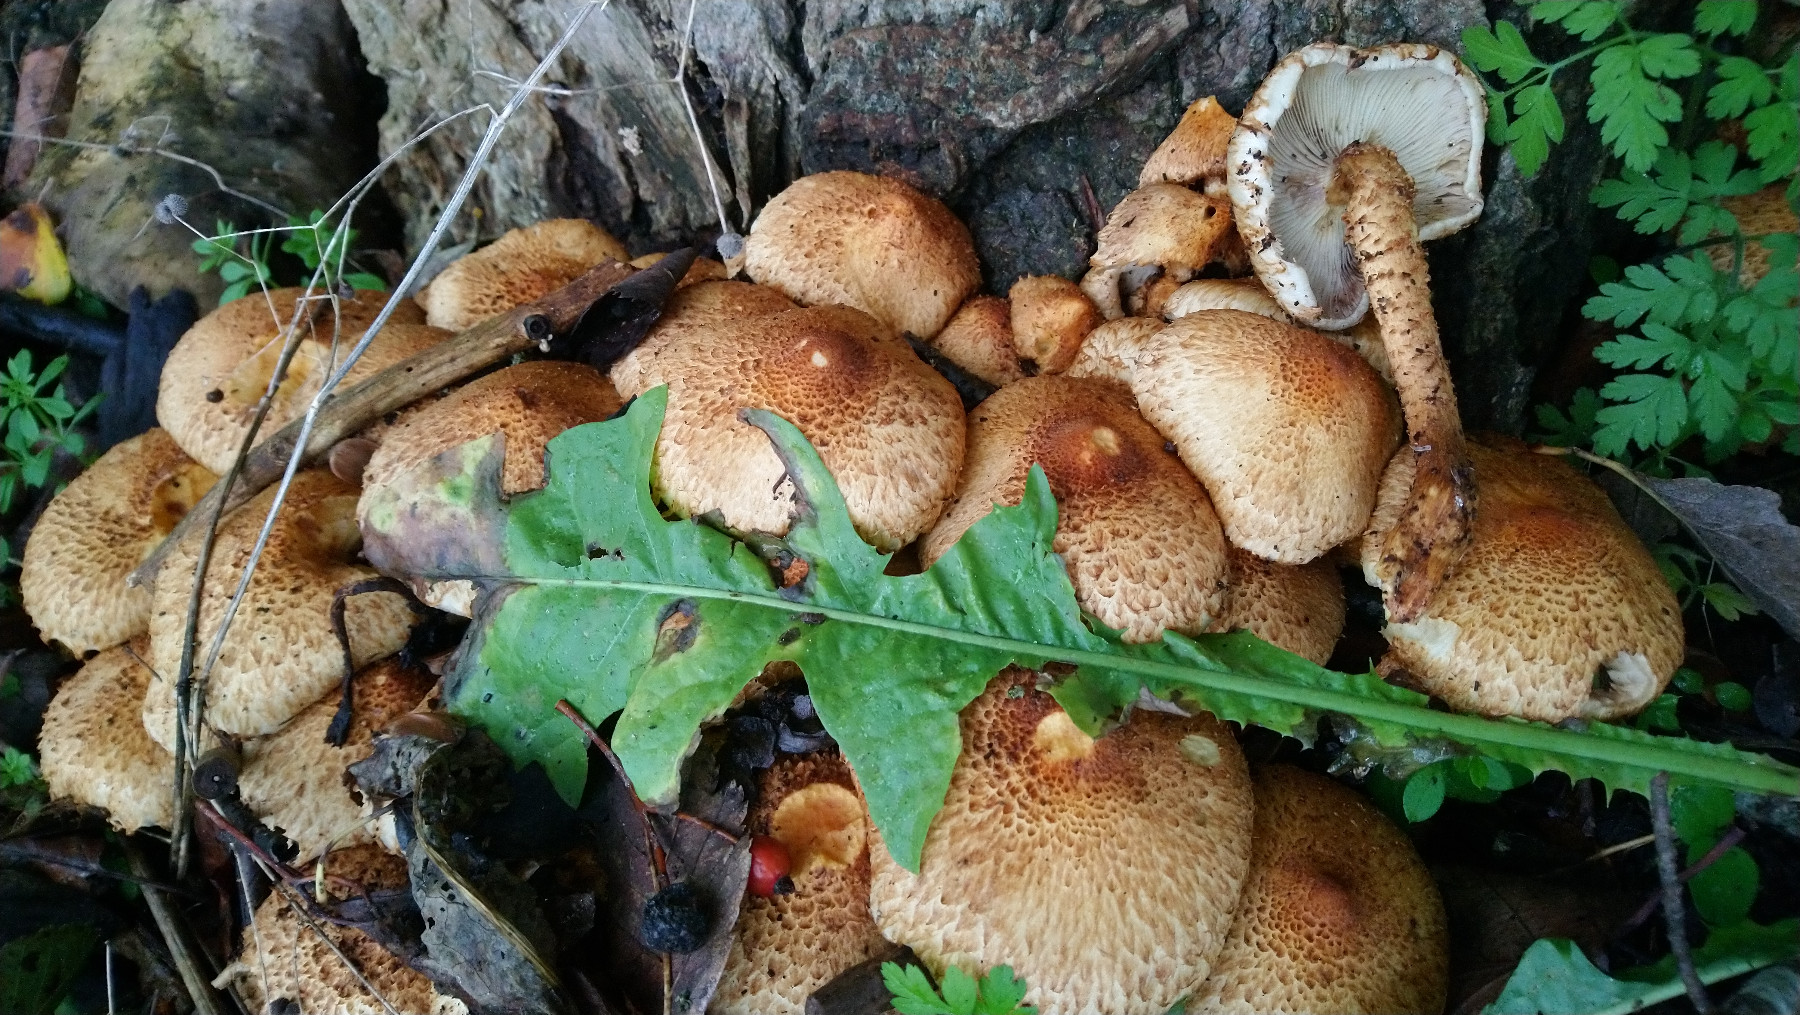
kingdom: Fungi
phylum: Basidiomycota
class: Agaricomycetes
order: Agaricales
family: Strophariaceae
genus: Pholiota
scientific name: Pholiota squarrosa
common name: krumskællet skælhat
